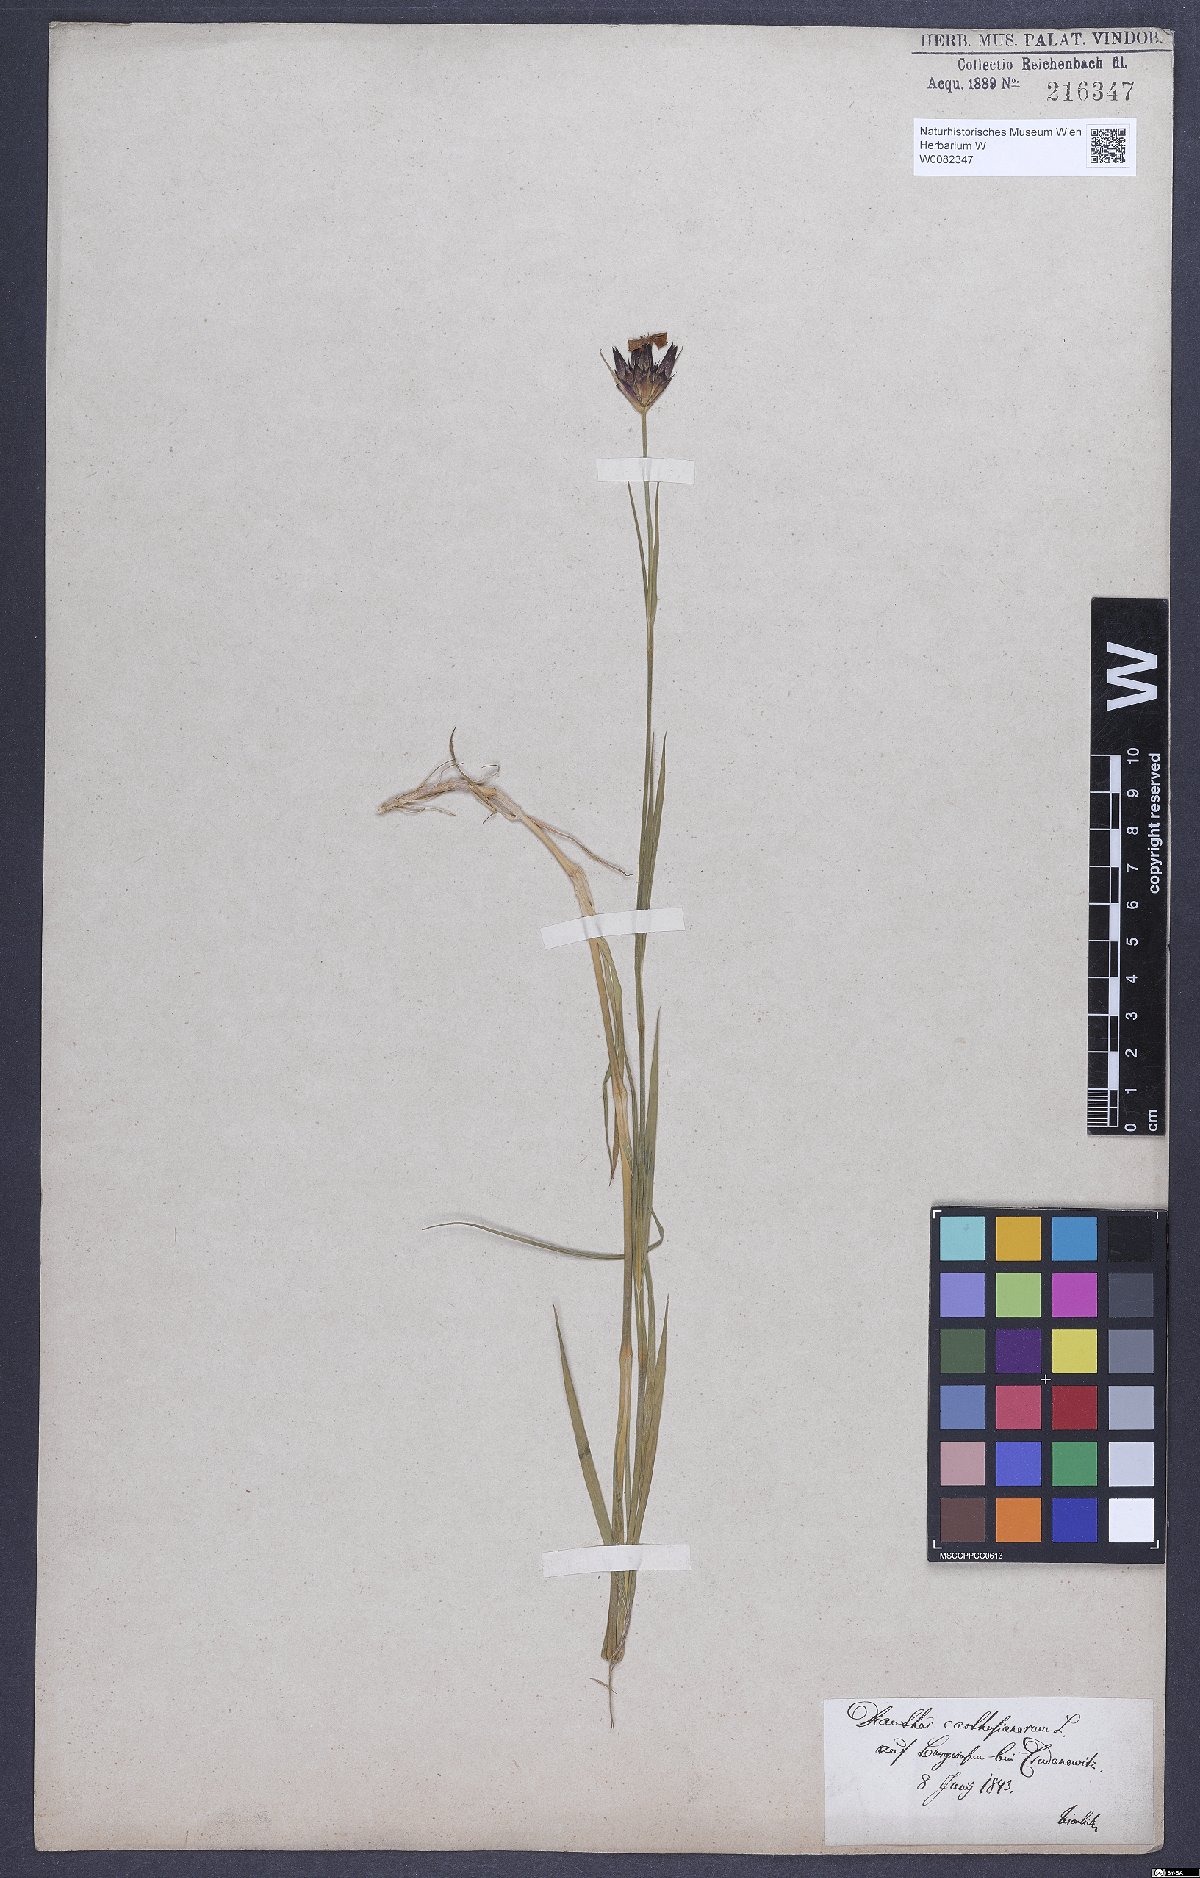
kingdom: Plantae
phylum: Tracheophyta
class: Magnoliopsida
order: Caryophyllales
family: Caryophyllaceae
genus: Dianthus
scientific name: Dianthus carthusianorum
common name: Carthusian pink
